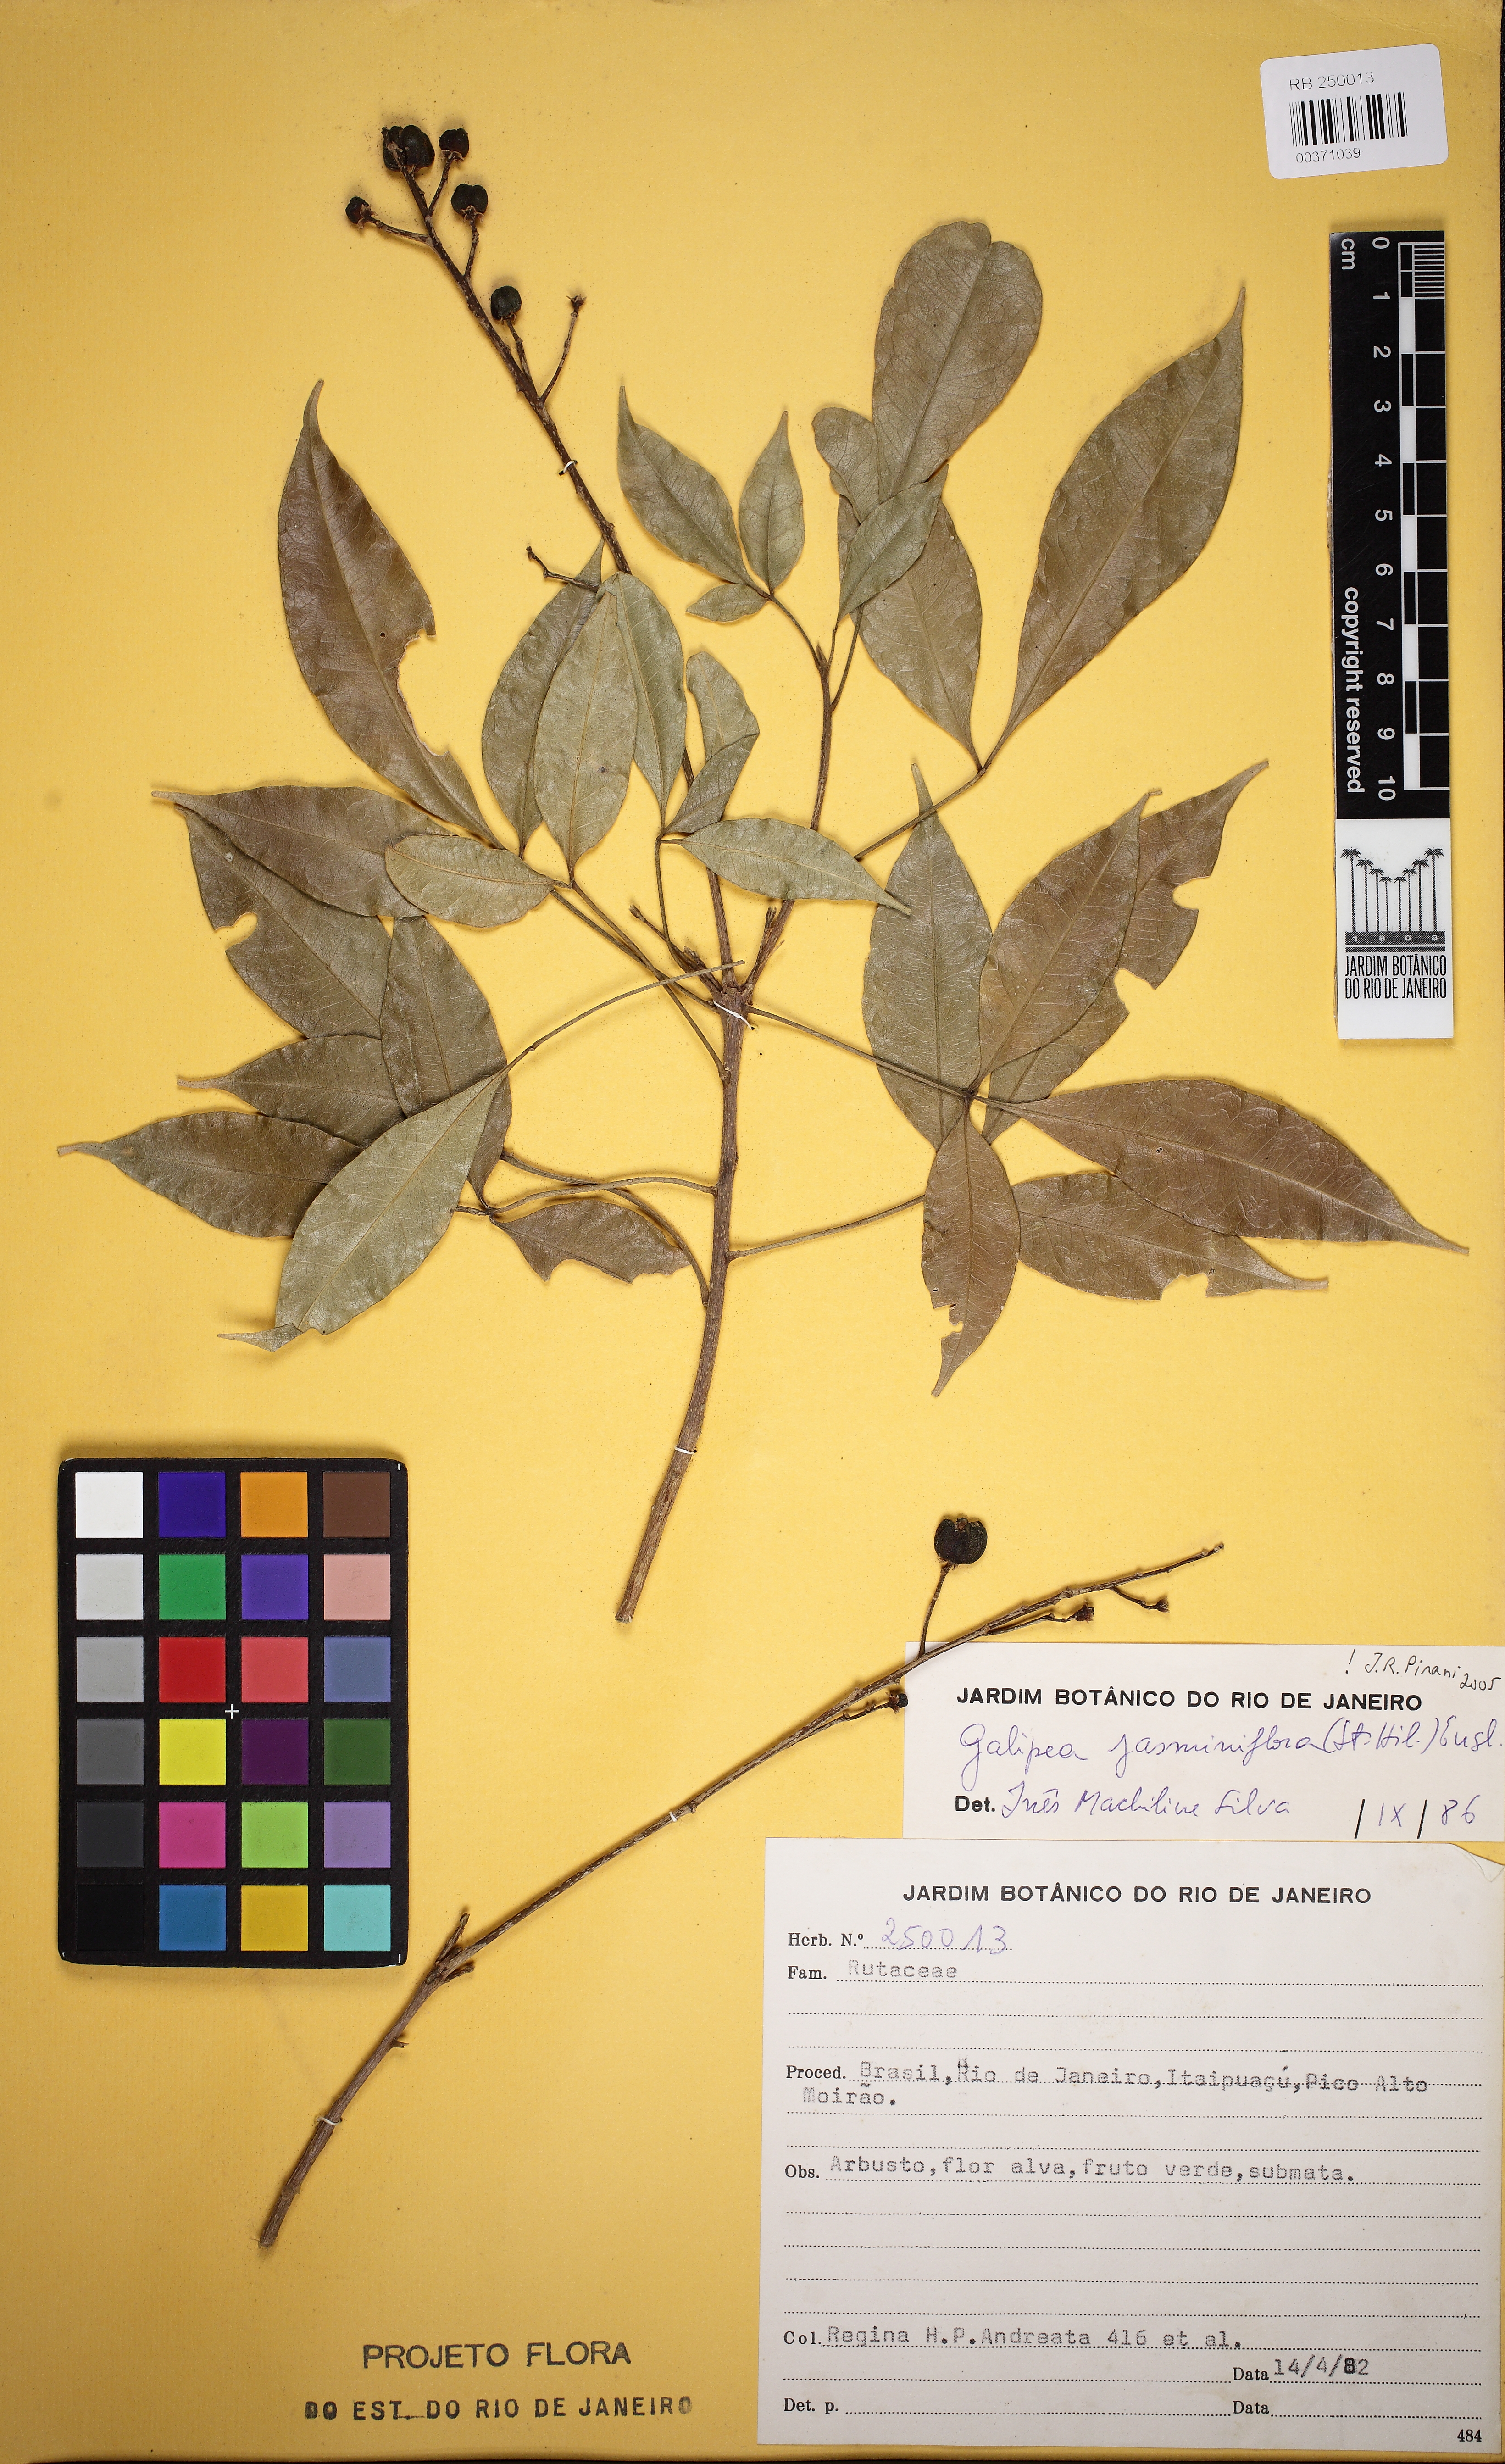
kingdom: Plantae
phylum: Tracheophyta
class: Magnoliopsida
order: Sapindales
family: Rutaceae
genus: Galipea
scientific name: Galipea jasminiflora
